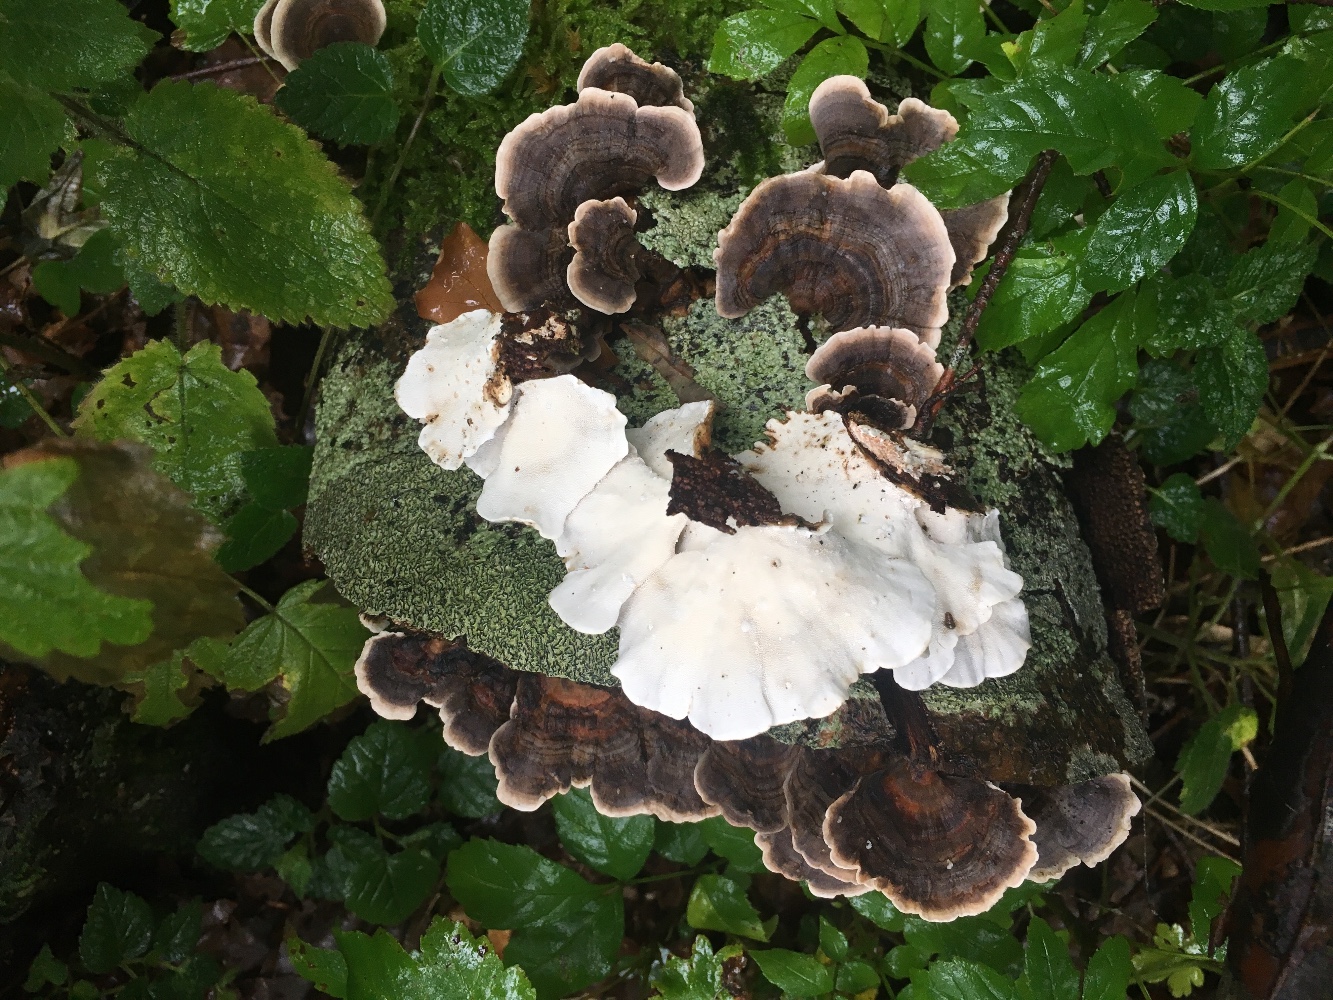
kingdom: Fungi
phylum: Basidiomycota
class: Agaricomycetes
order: Polyporales
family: Polyporaceae
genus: Trametes
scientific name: Trametes versicolor
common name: broget læderporesvamp
